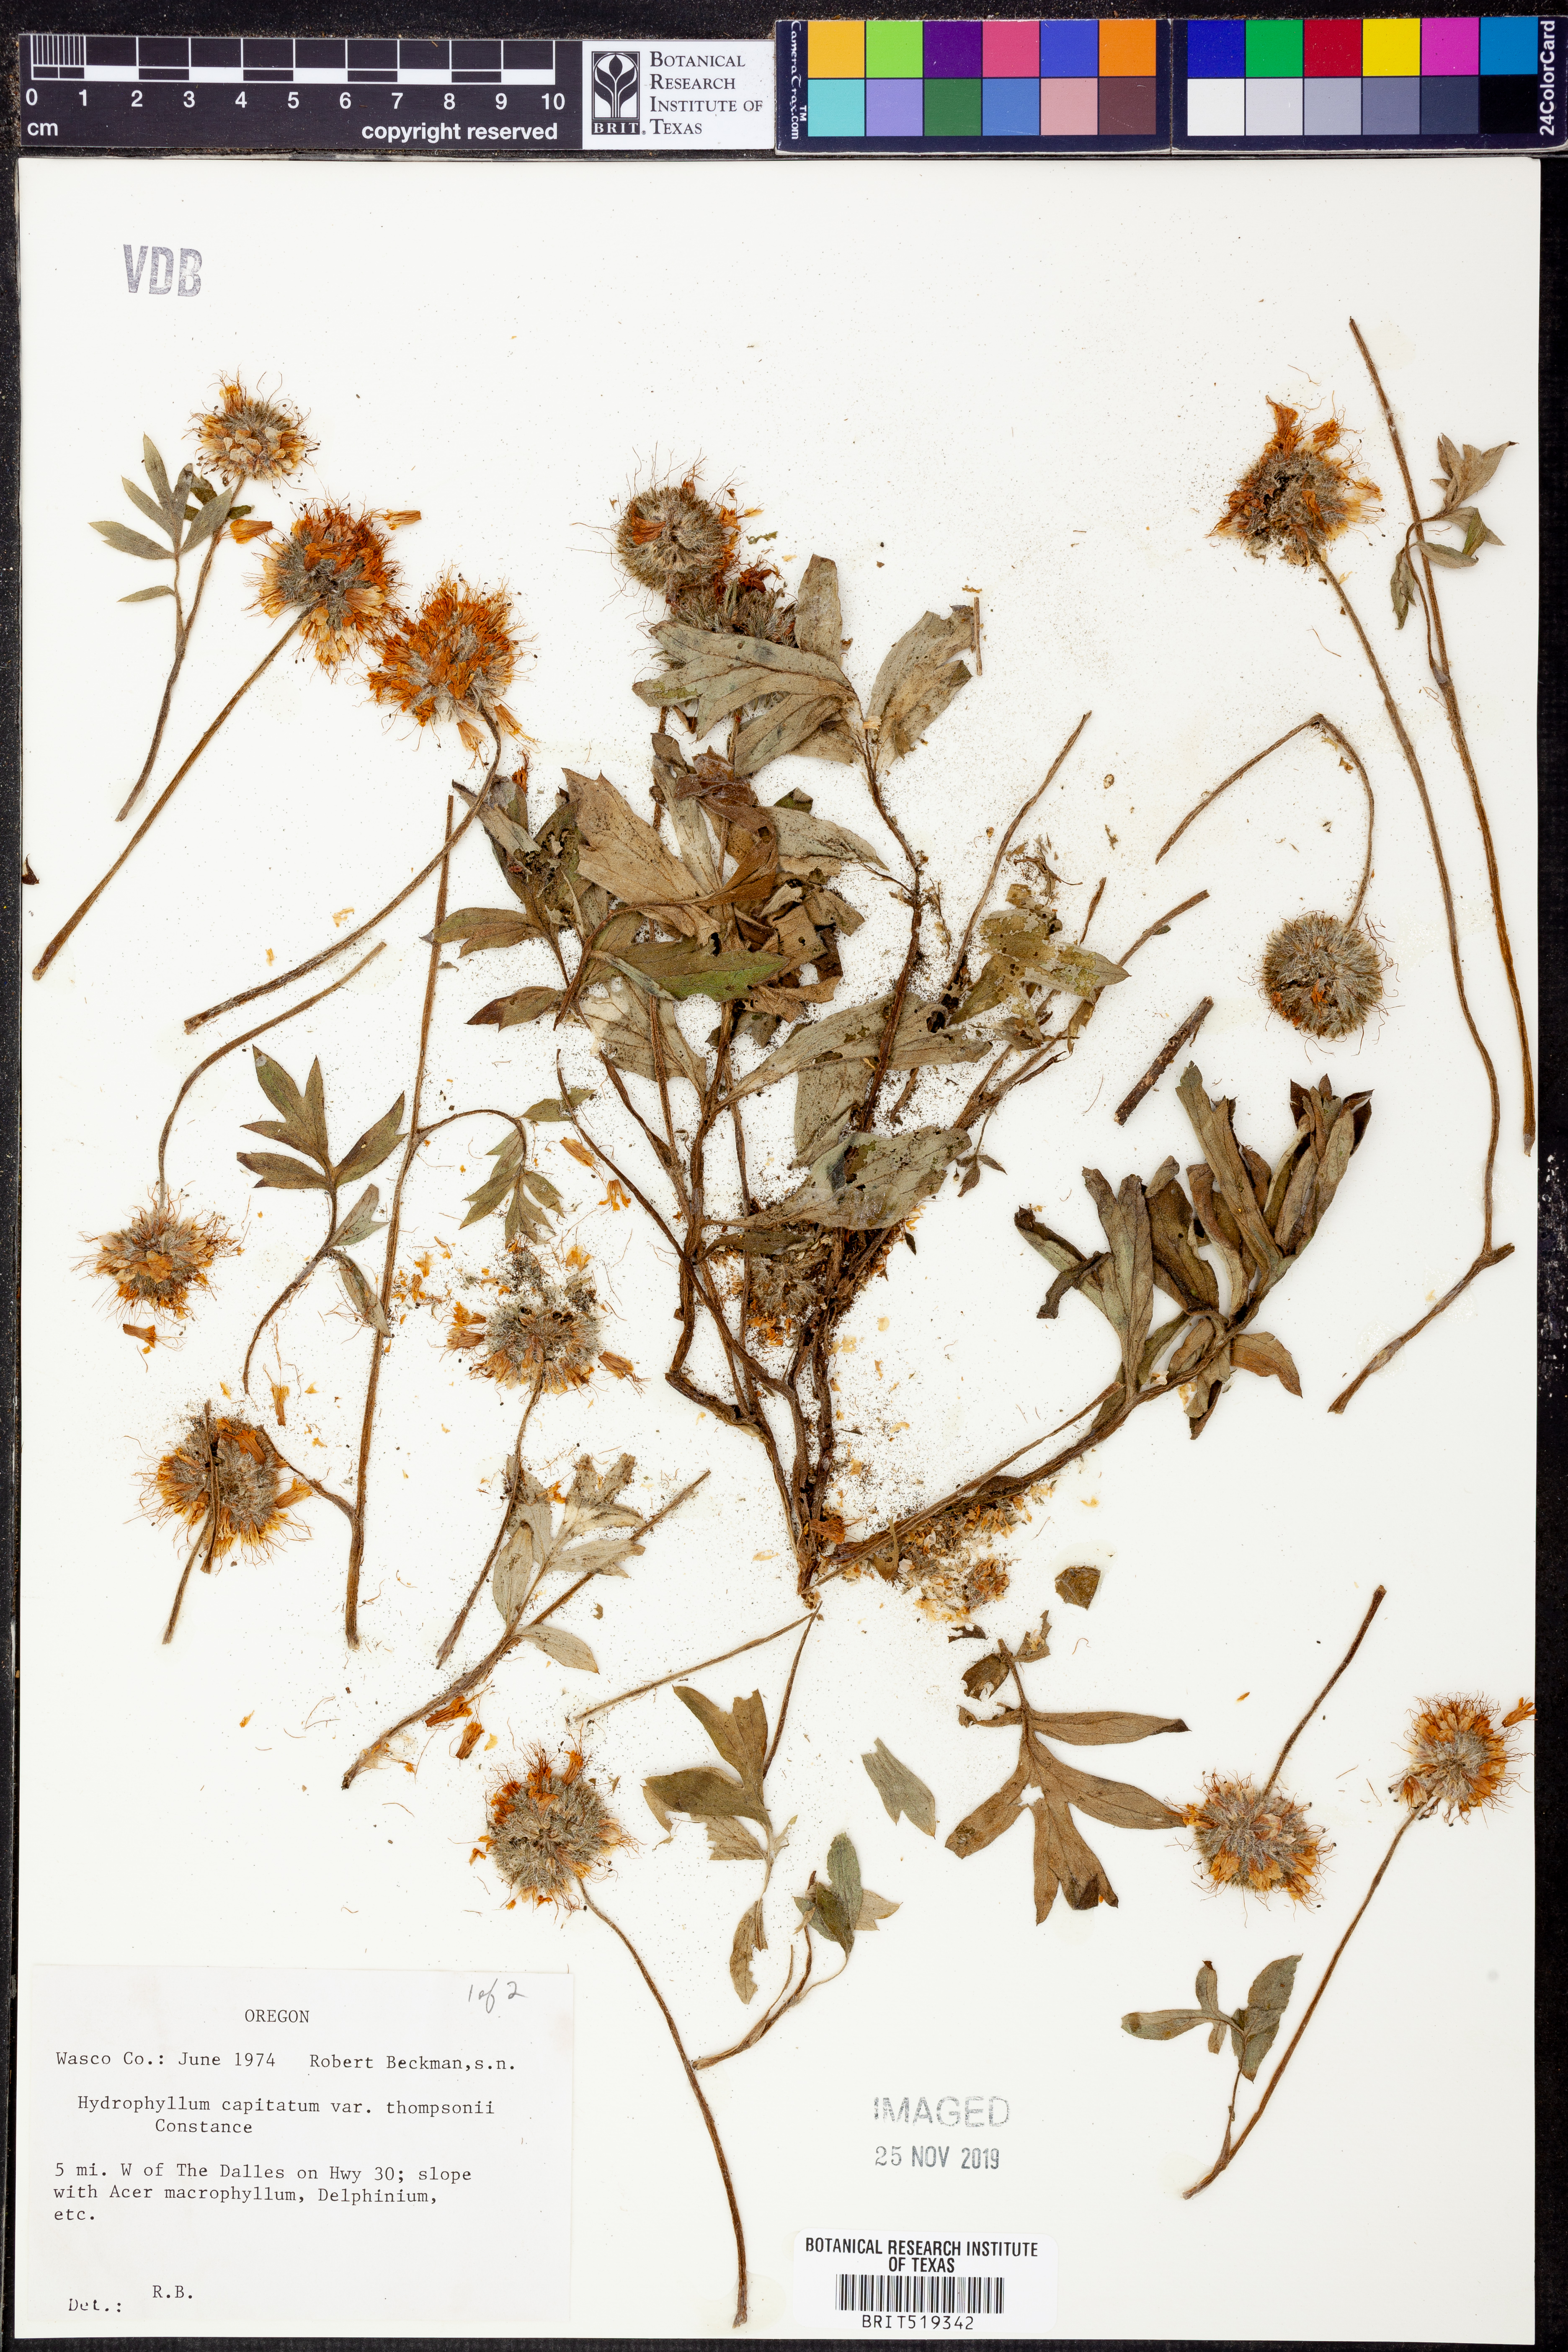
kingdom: Plantae
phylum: Tracheophyta
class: Magnoliopsida
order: Boraginales
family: Hydrophyllaceae
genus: Hydrophyllum
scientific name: Hydrophyllum capitatum
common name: Woollen-breeches
